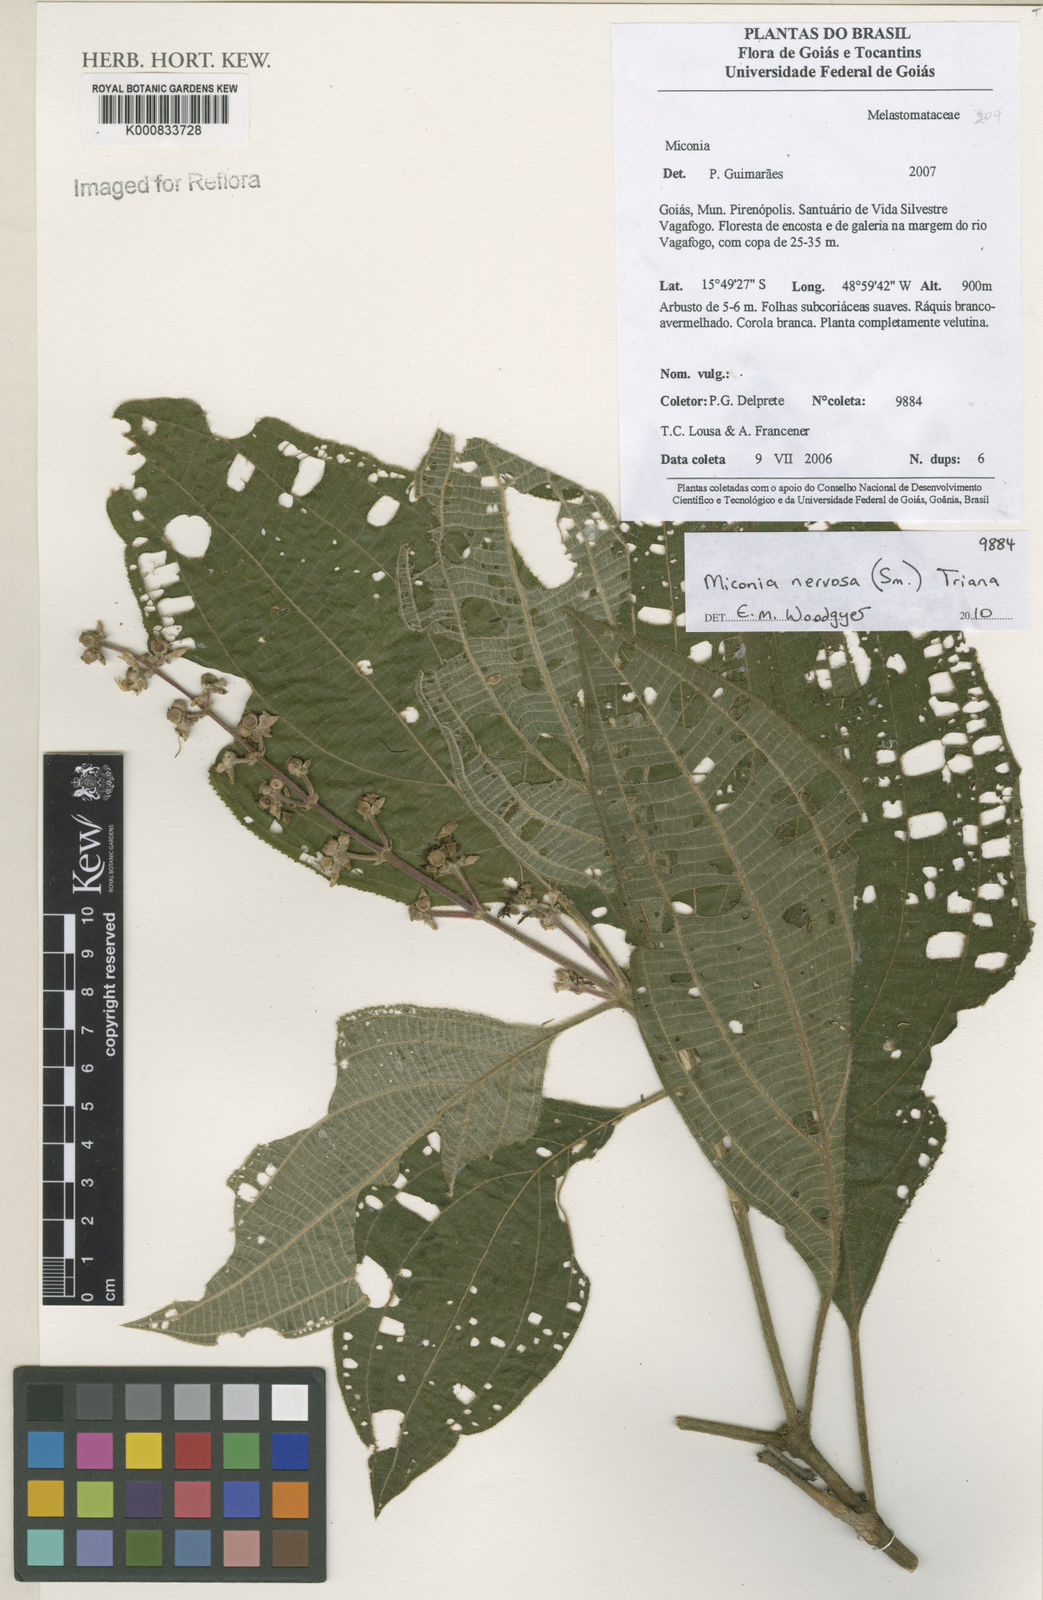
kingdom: Plantae
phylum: Tracheophyta
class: Magnoliopsida
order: Myrtales
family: Melastomataceae
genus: Miconia
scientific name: Miconia nervosa
